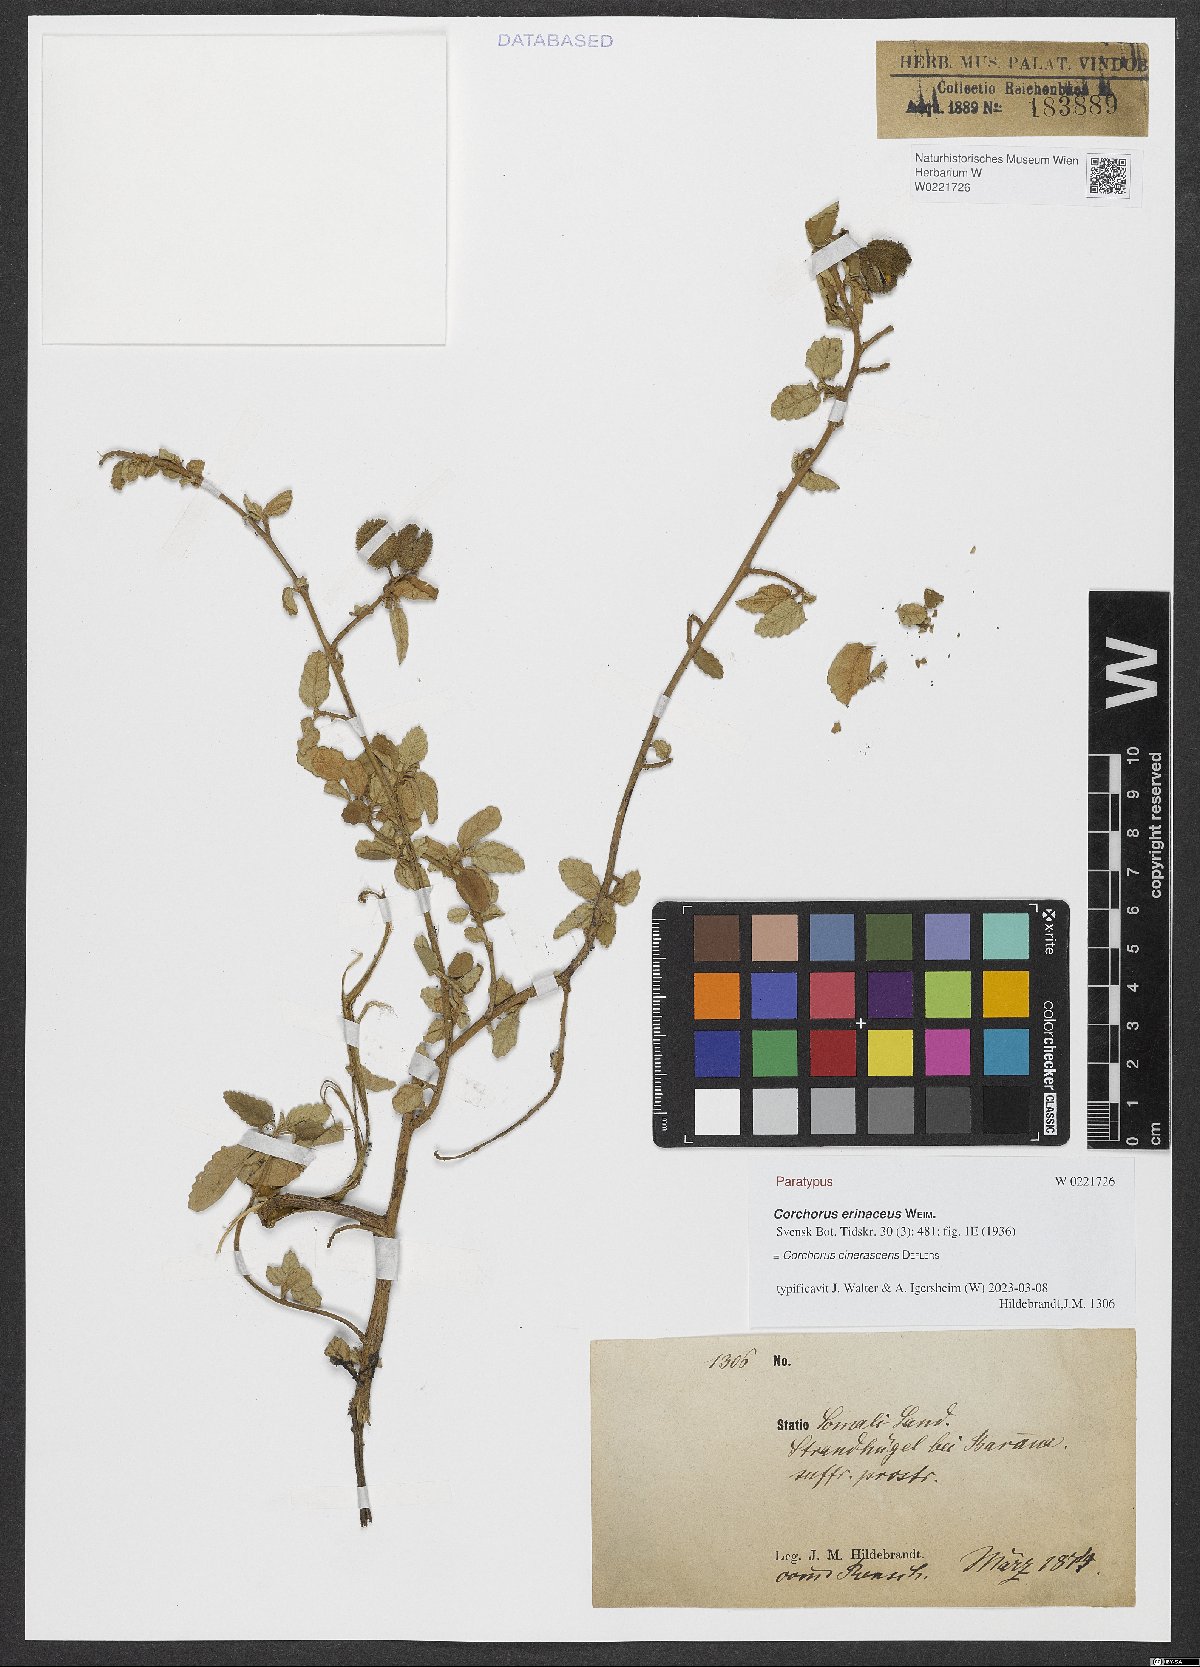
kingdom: Plantae
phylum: Tracheophyta
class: Magnoliopsida
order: Malvales
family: Malvaceae
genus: Corchorus
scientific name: Corchorus cinerascens
